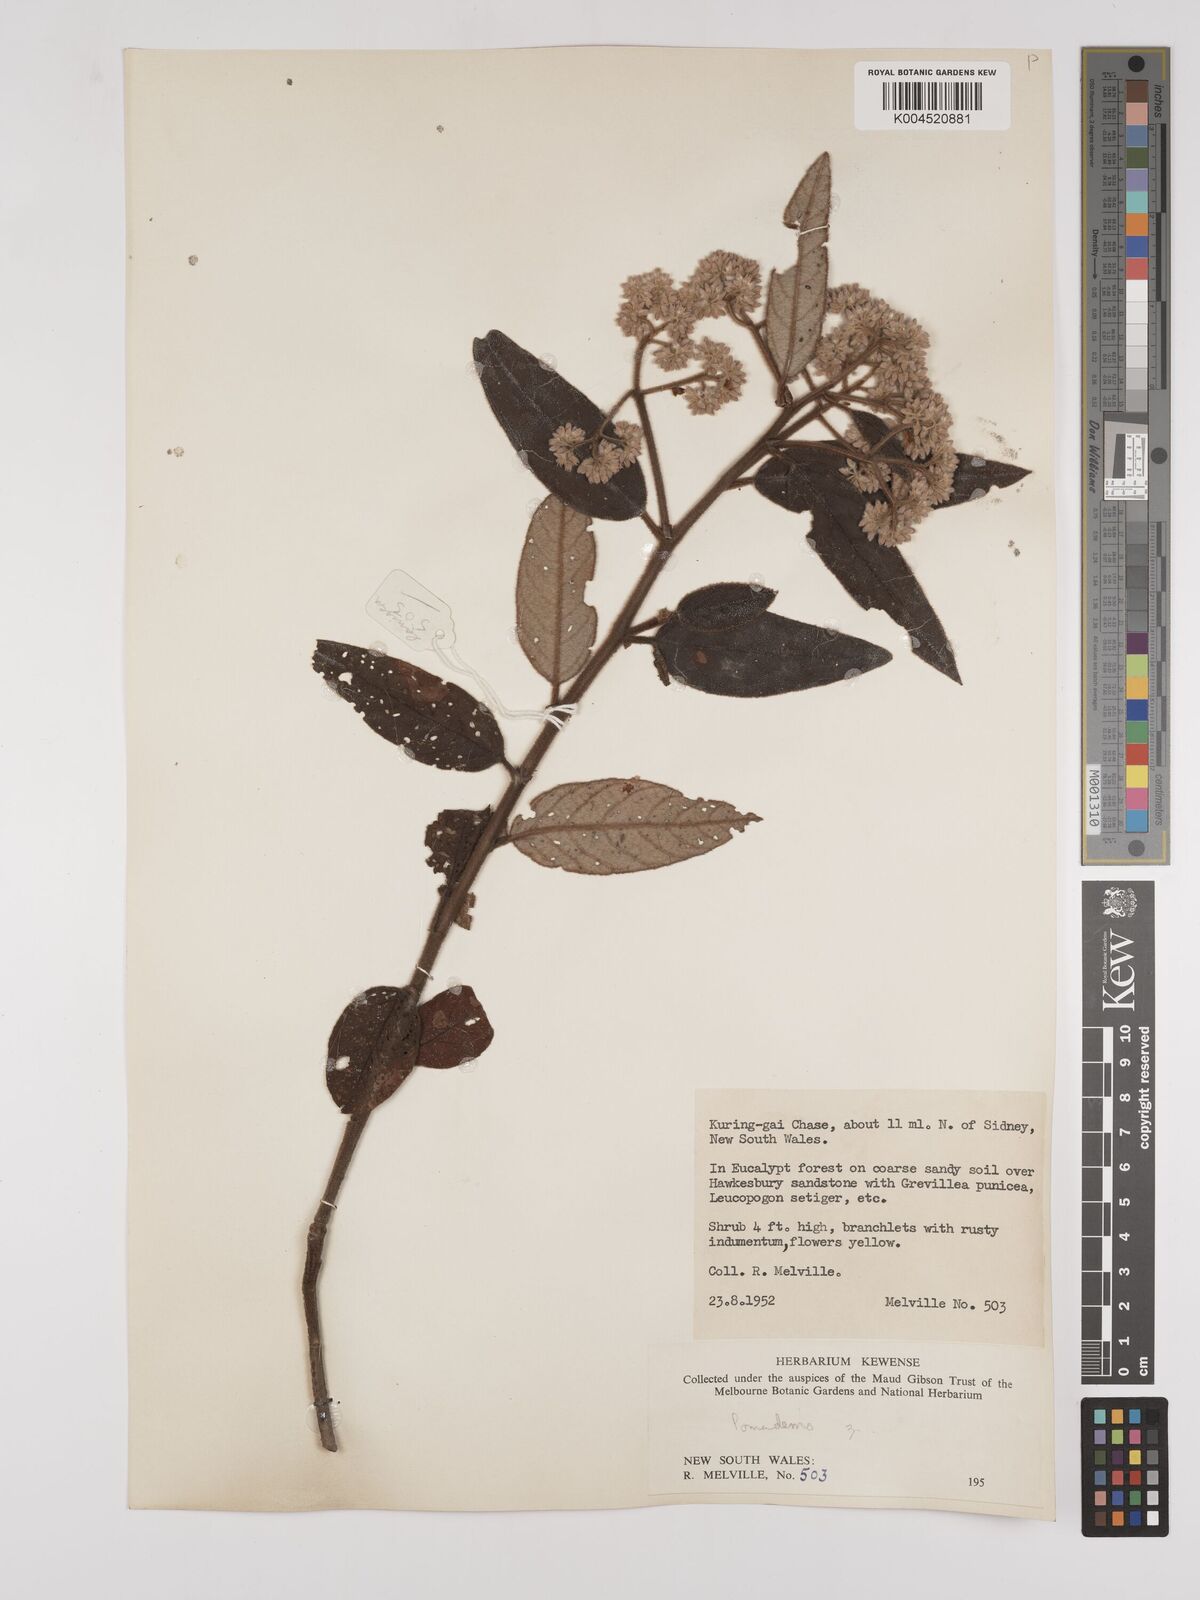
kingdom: Plantae
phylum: Tracheophyta
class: Magnoliopsida
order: Rosales
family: Rhamnaceae
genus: Pomaderris
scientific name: Pomaderris
